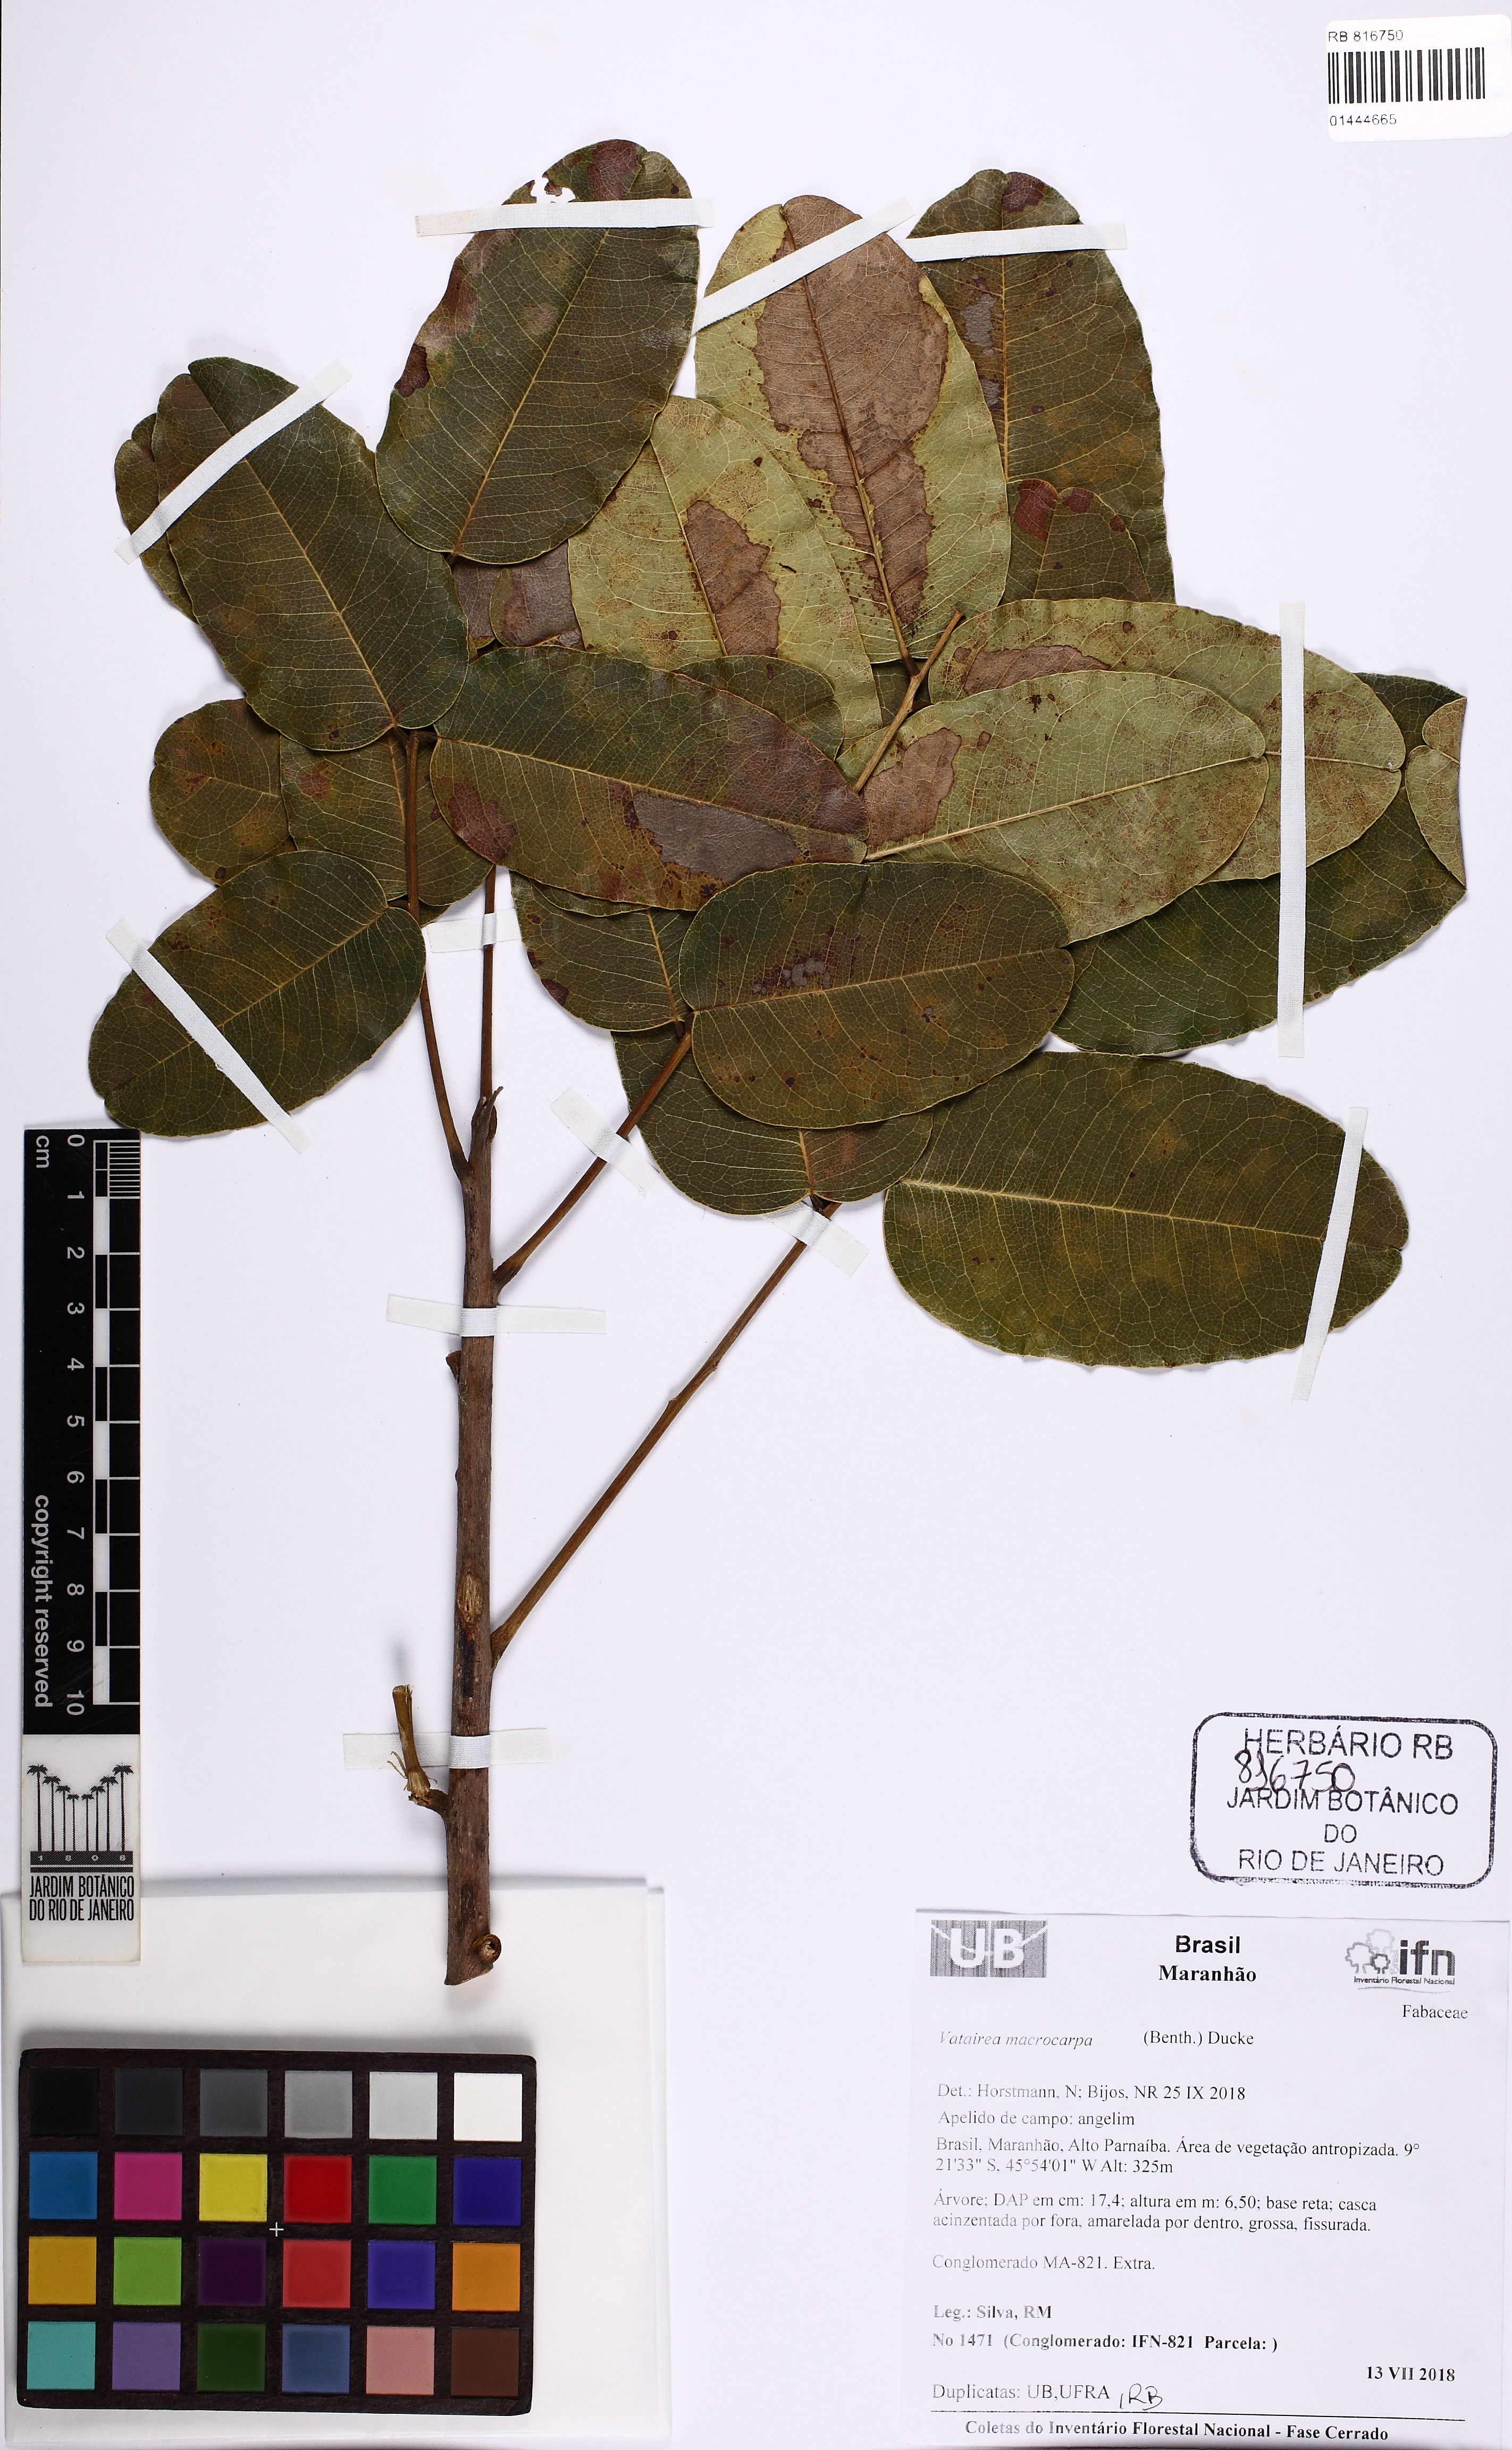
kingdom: Plantae
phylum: Tracheophyta
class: Magnoliopsida
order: Fabales
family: Fabaceae
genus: Vatairea
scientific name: Vatairea macrocarpa
